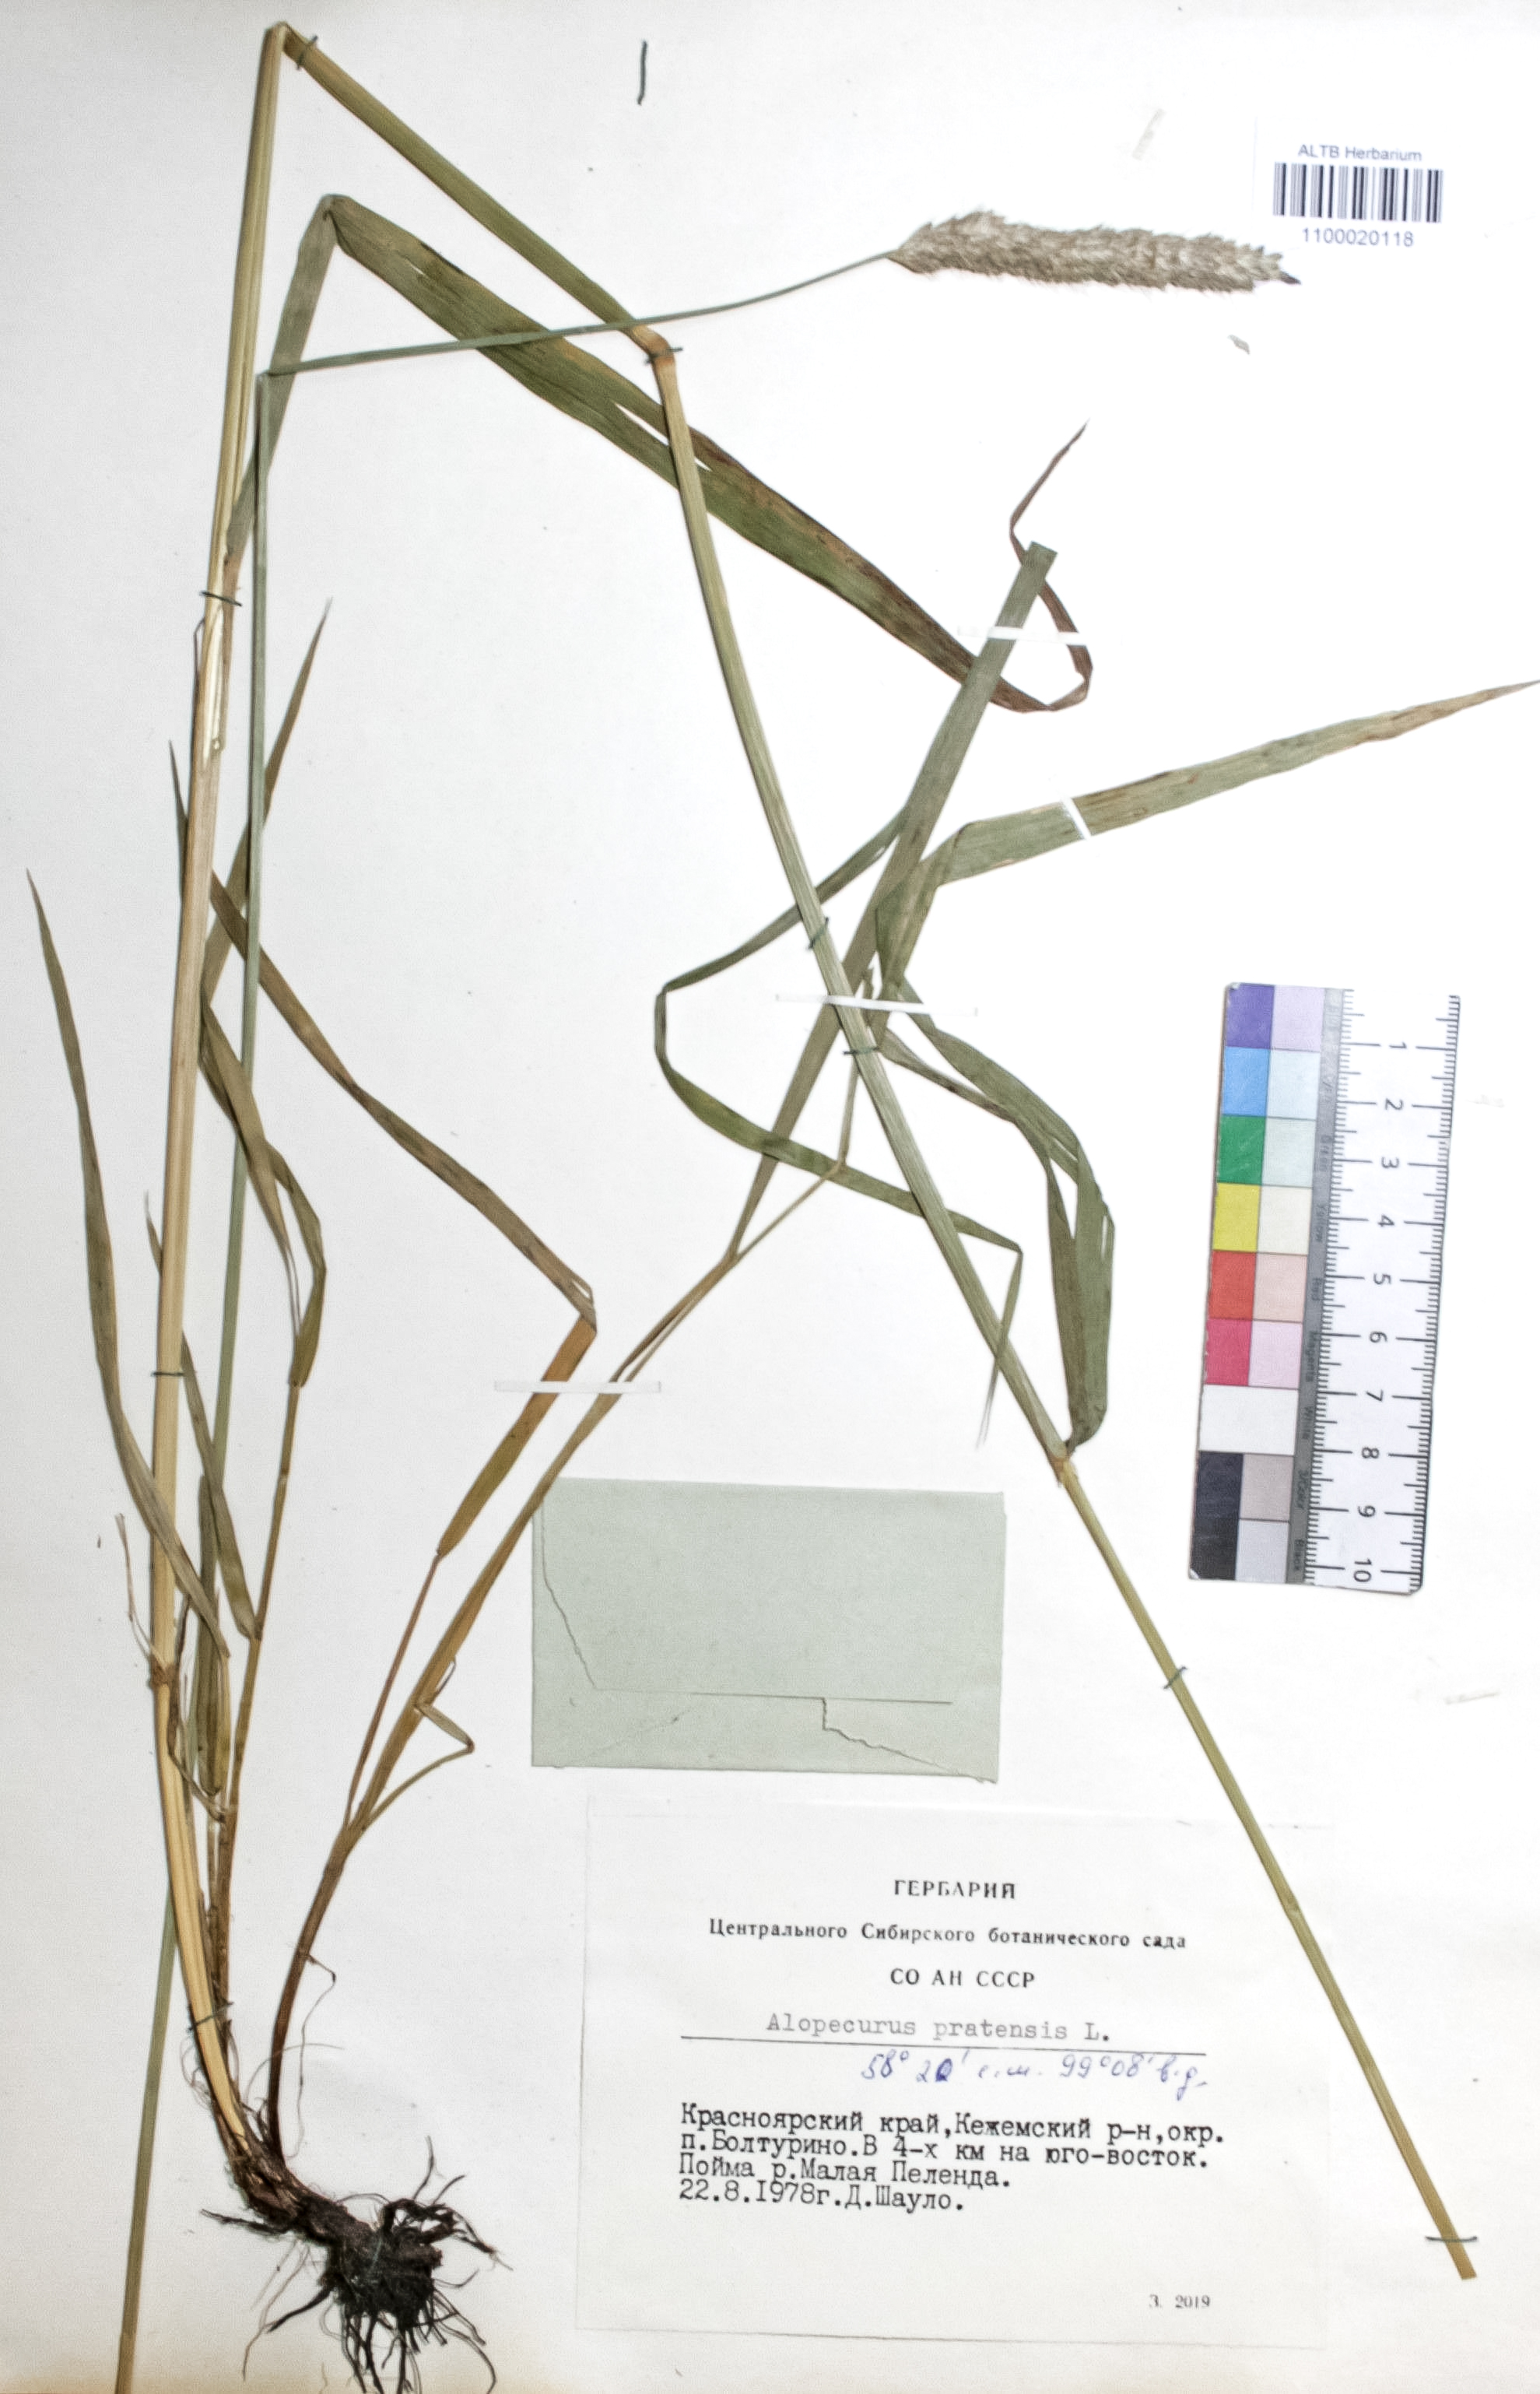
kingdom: Plantae
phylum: Tracheophyta
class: Liliopsida
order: Poales
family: Poaceae
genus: Alopecurus
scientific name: Alopecurus pratensis
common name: Meadow foxtail
